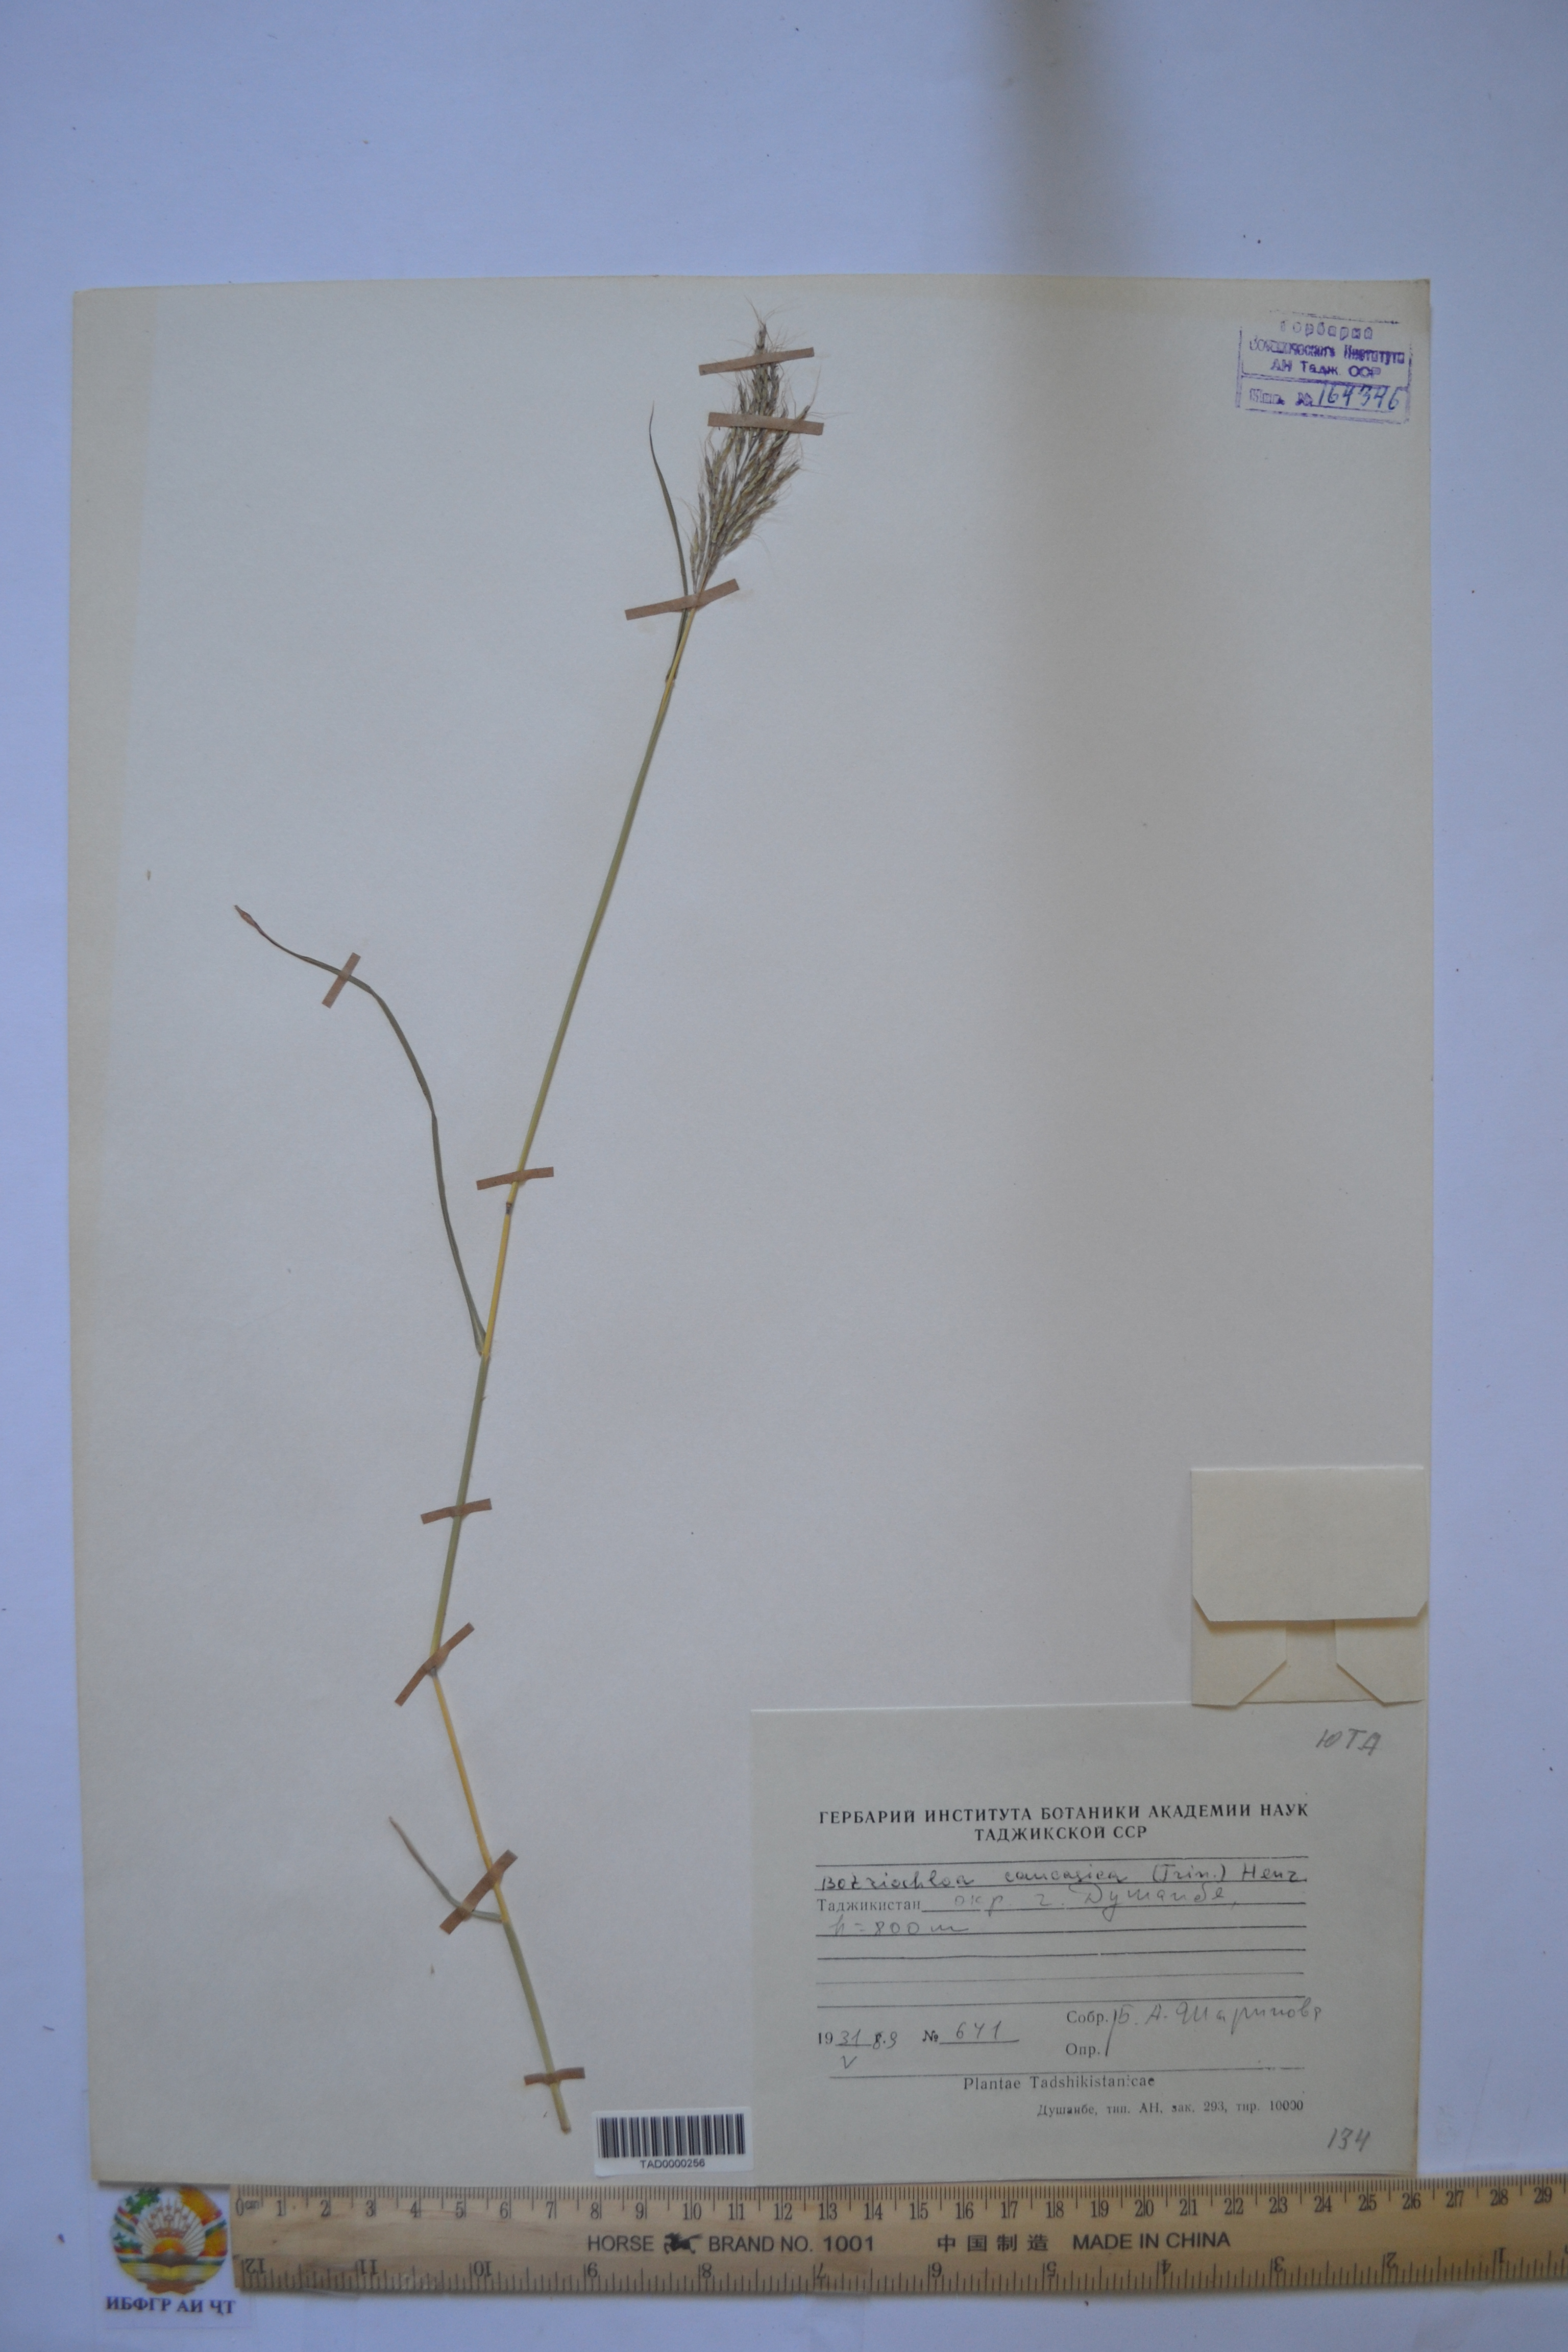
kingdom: Plantae
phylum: Tracheophyta
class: Liliopsida
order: Poales
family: Poaceae
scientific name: Poaceae
